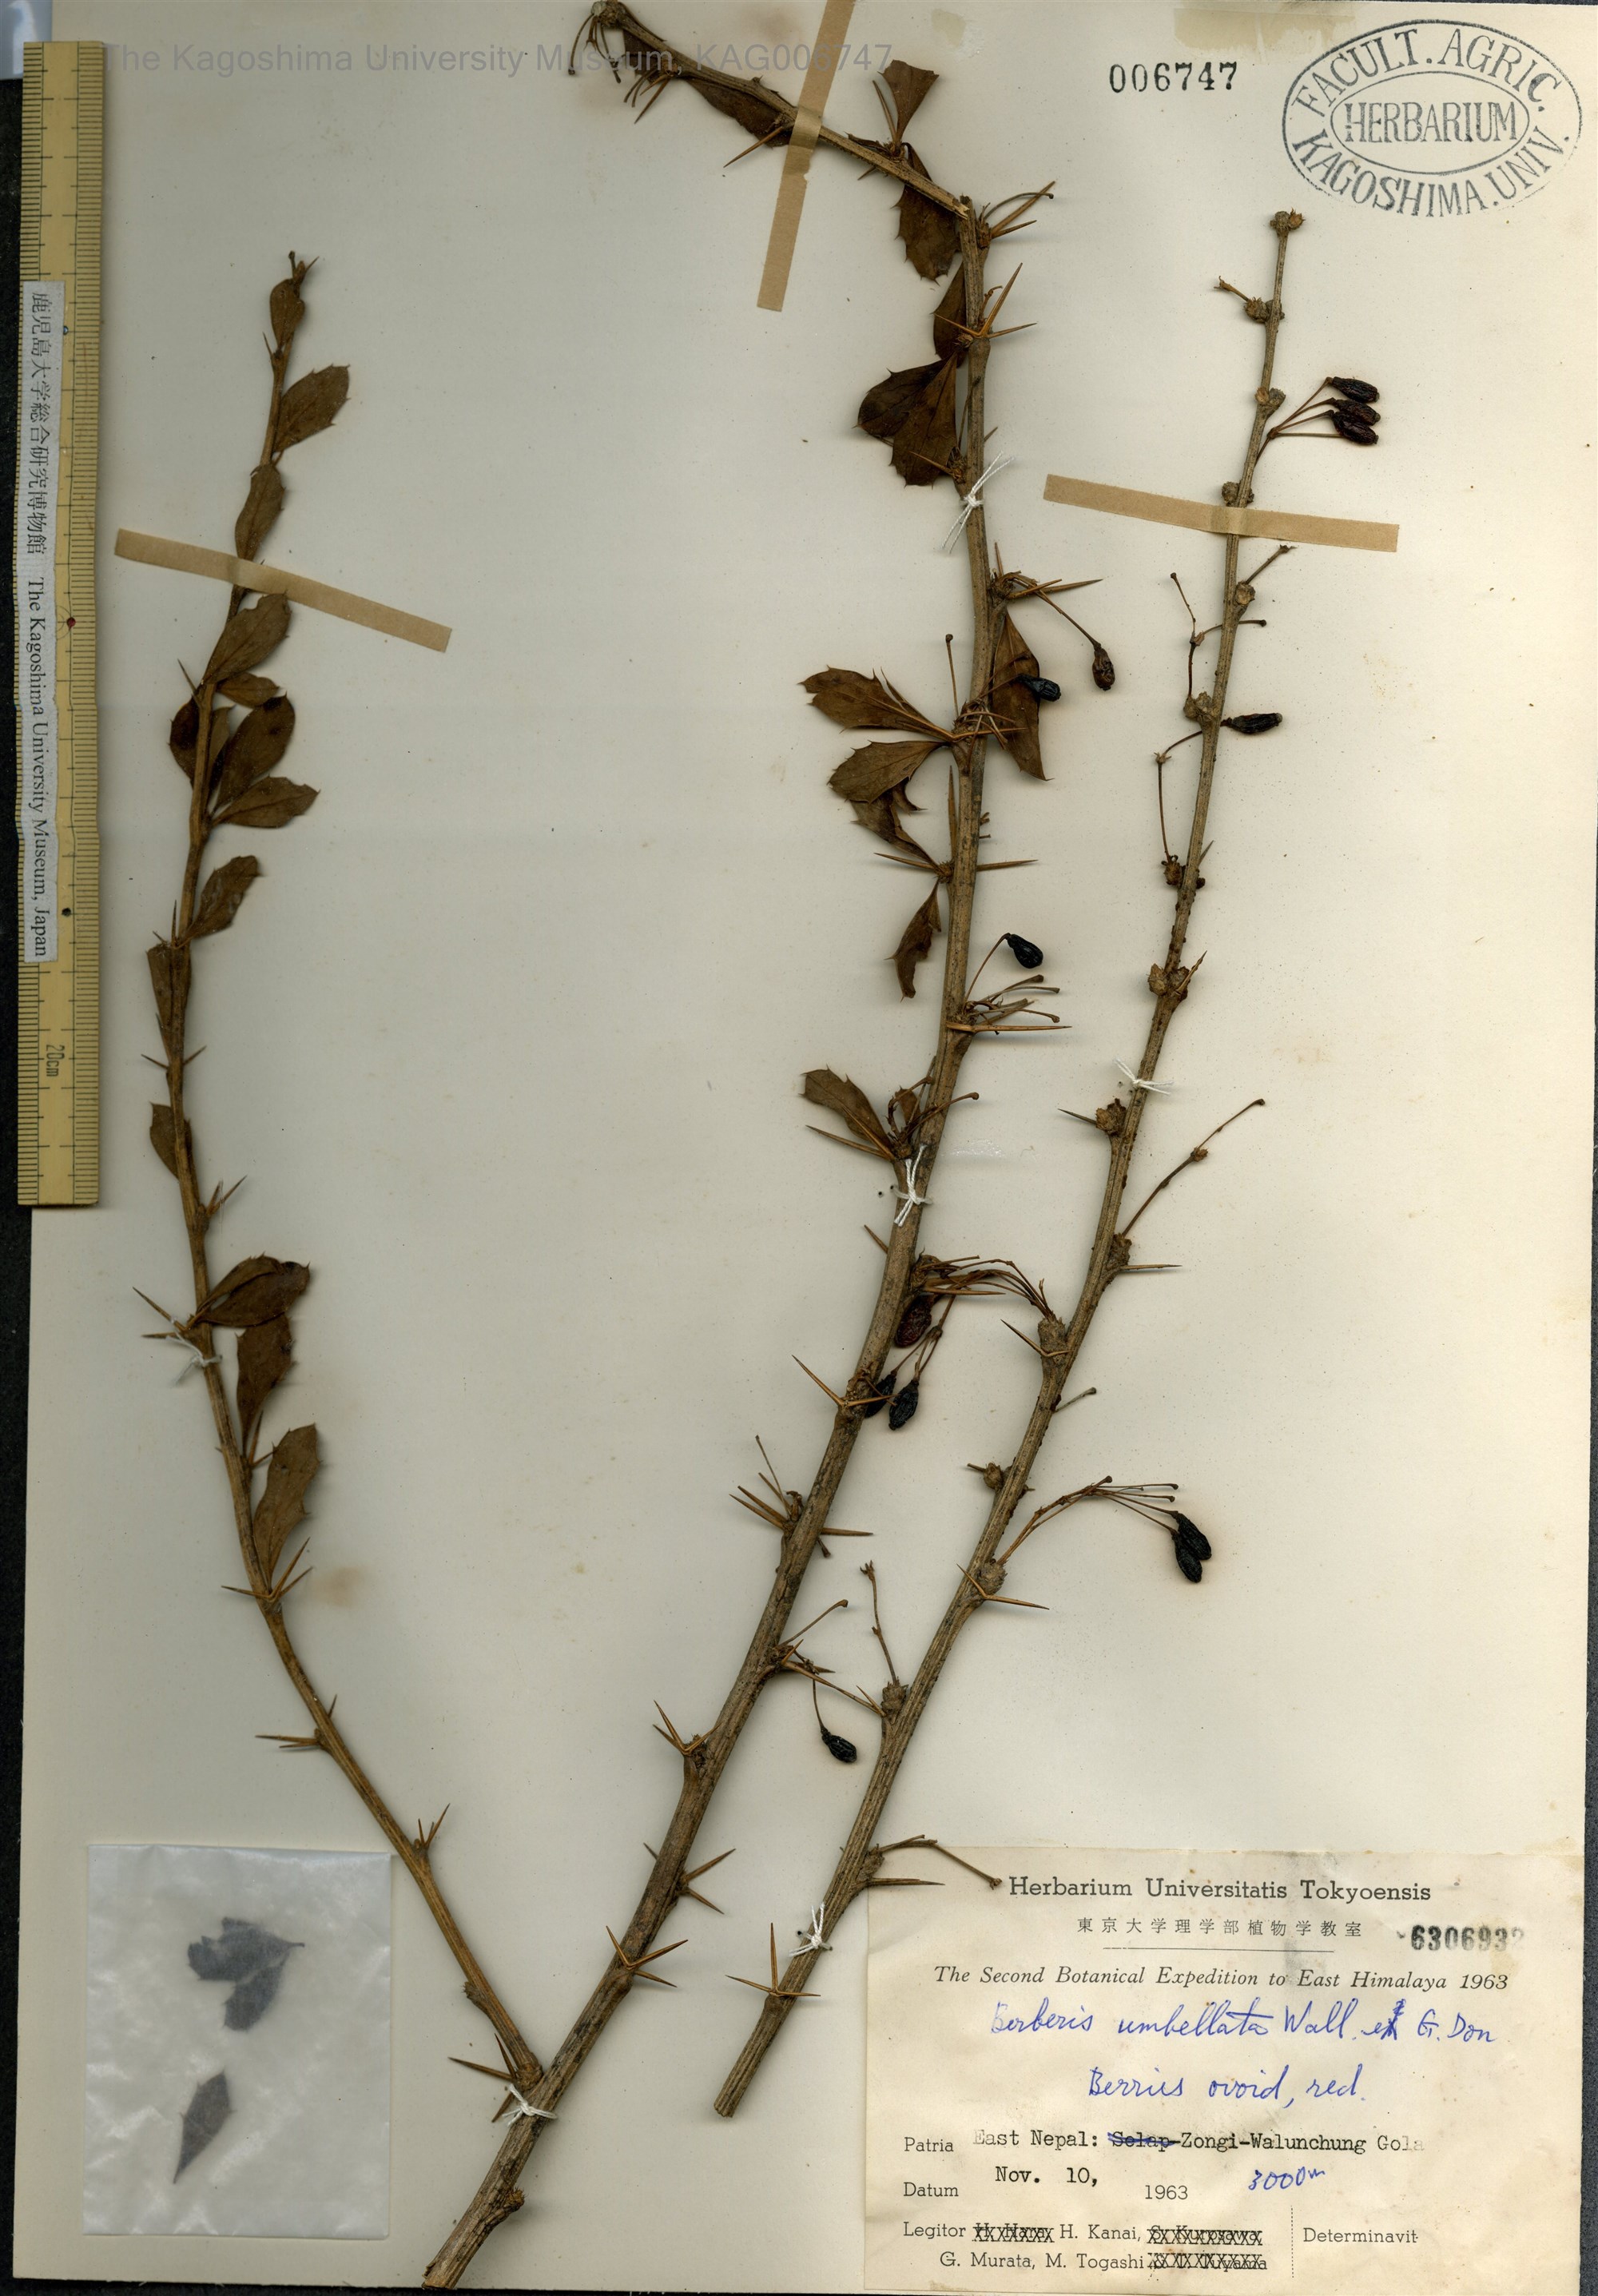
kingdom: Plantae
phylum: Tracheophyta
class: Magnoliopsida
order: Ranunculales
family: Berberidaceae
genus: Berberis
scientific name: Berberis umbellata
